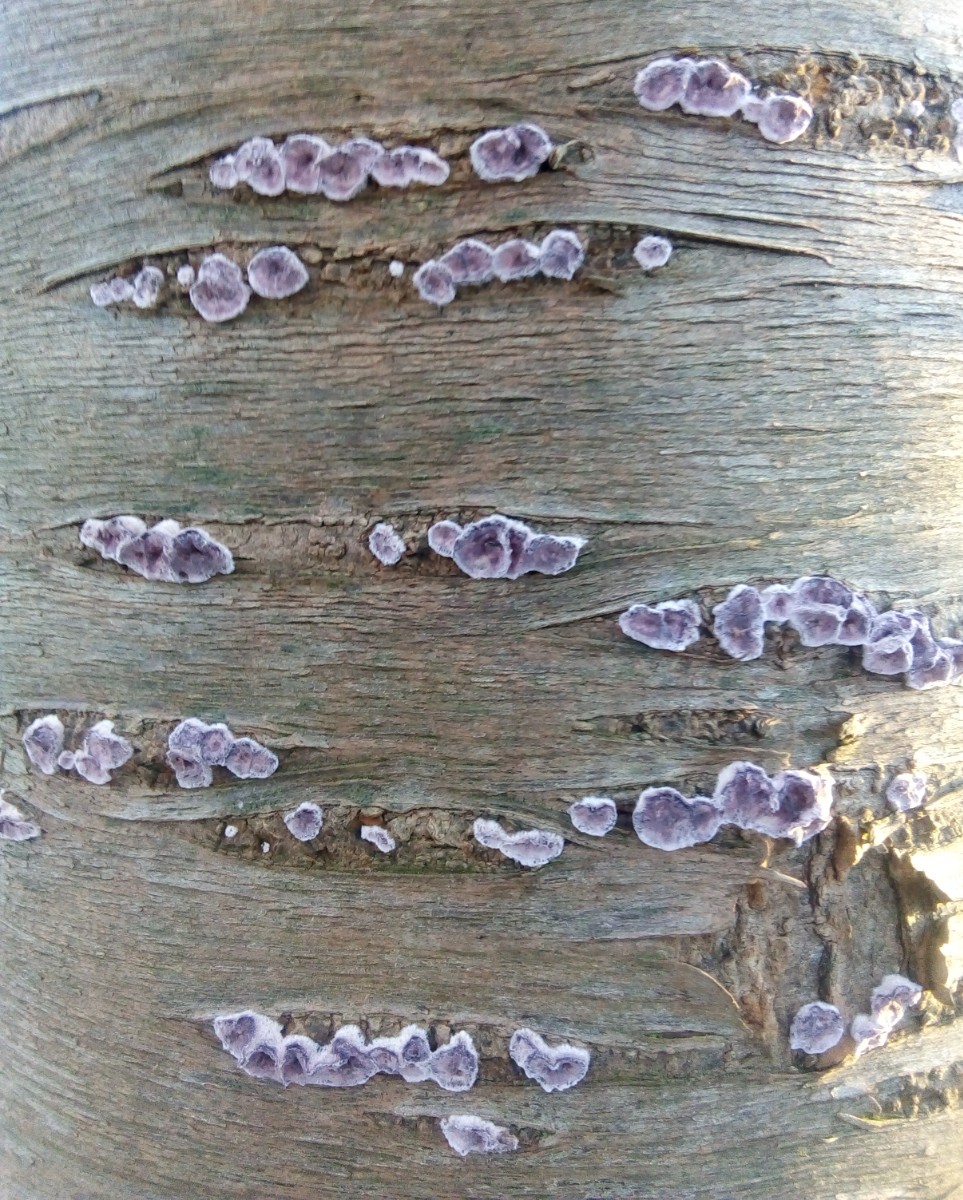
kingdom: Fungi
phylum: Basidiomycota
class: Agaricomycetes
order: Agaricales
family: Cyphellaceae
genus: Chondrostereum
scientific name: Chondrostereum purpureum
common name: purpurlædersvamp
